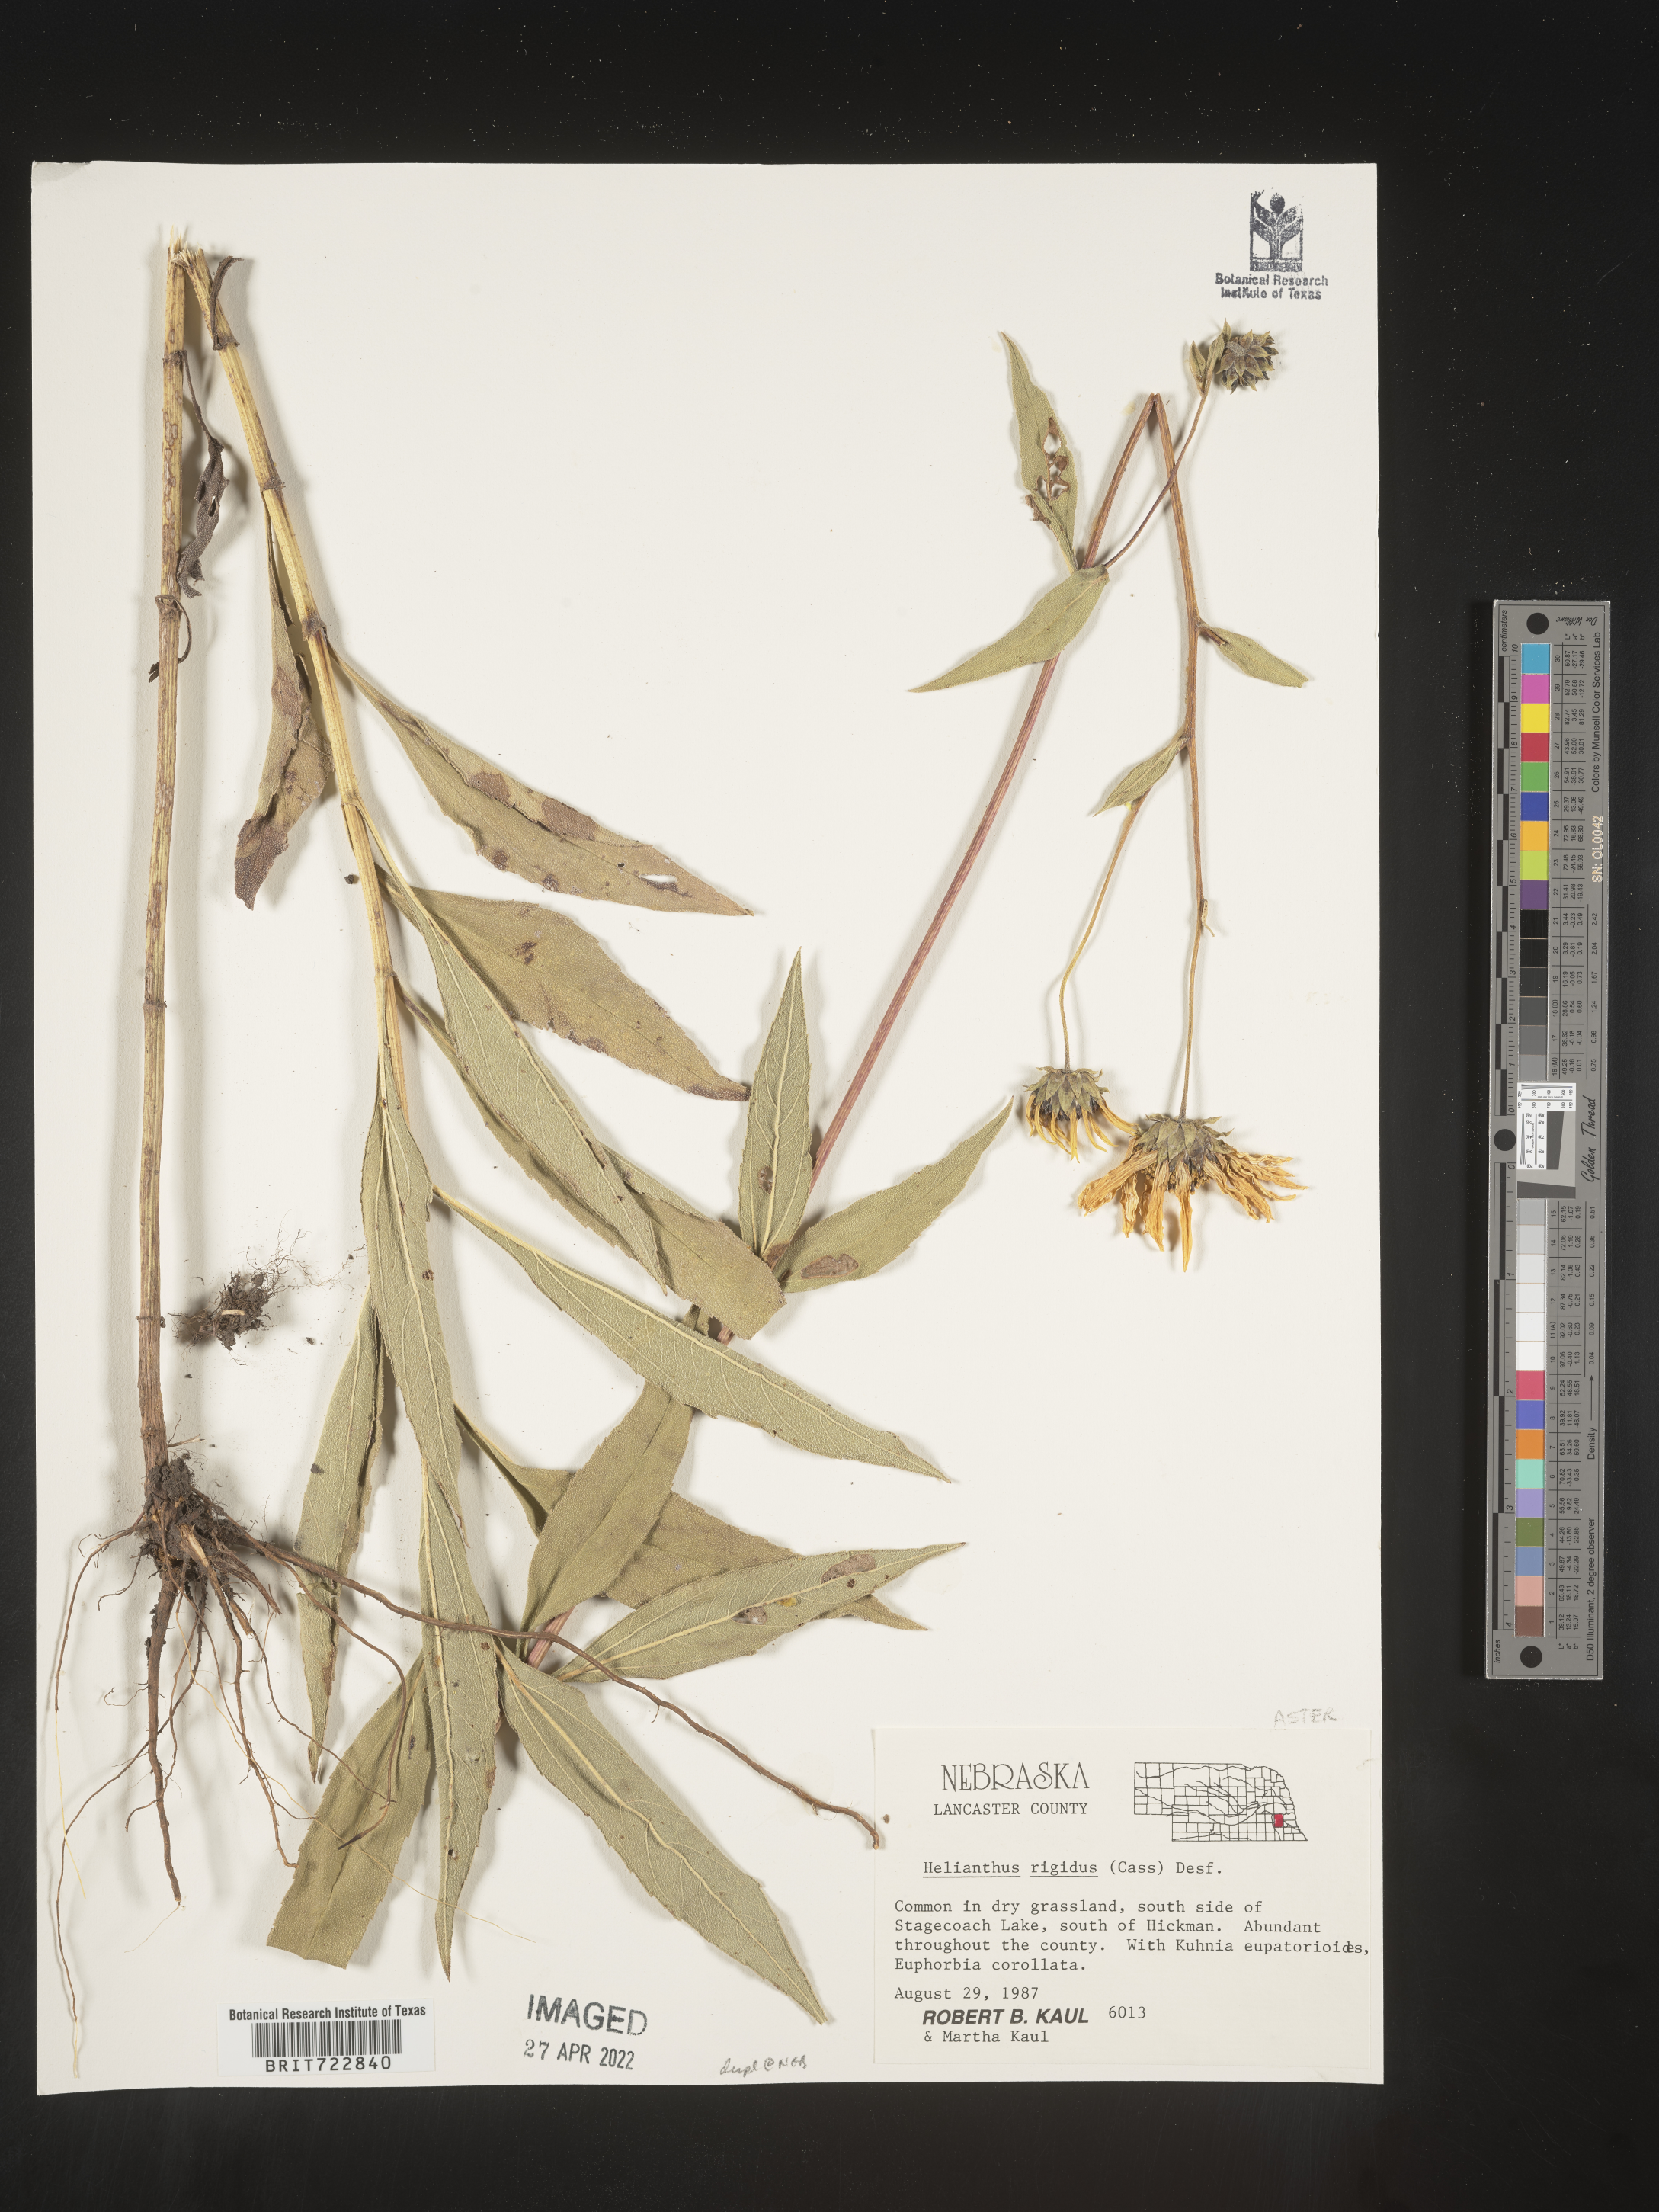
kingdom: Plantae
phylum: Tracheophyta
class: Magnoliopsida
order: Asterales
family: Asteraceae
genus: Helianthus
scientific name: Helianthus pauciflorus
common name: Stiff sunflower
